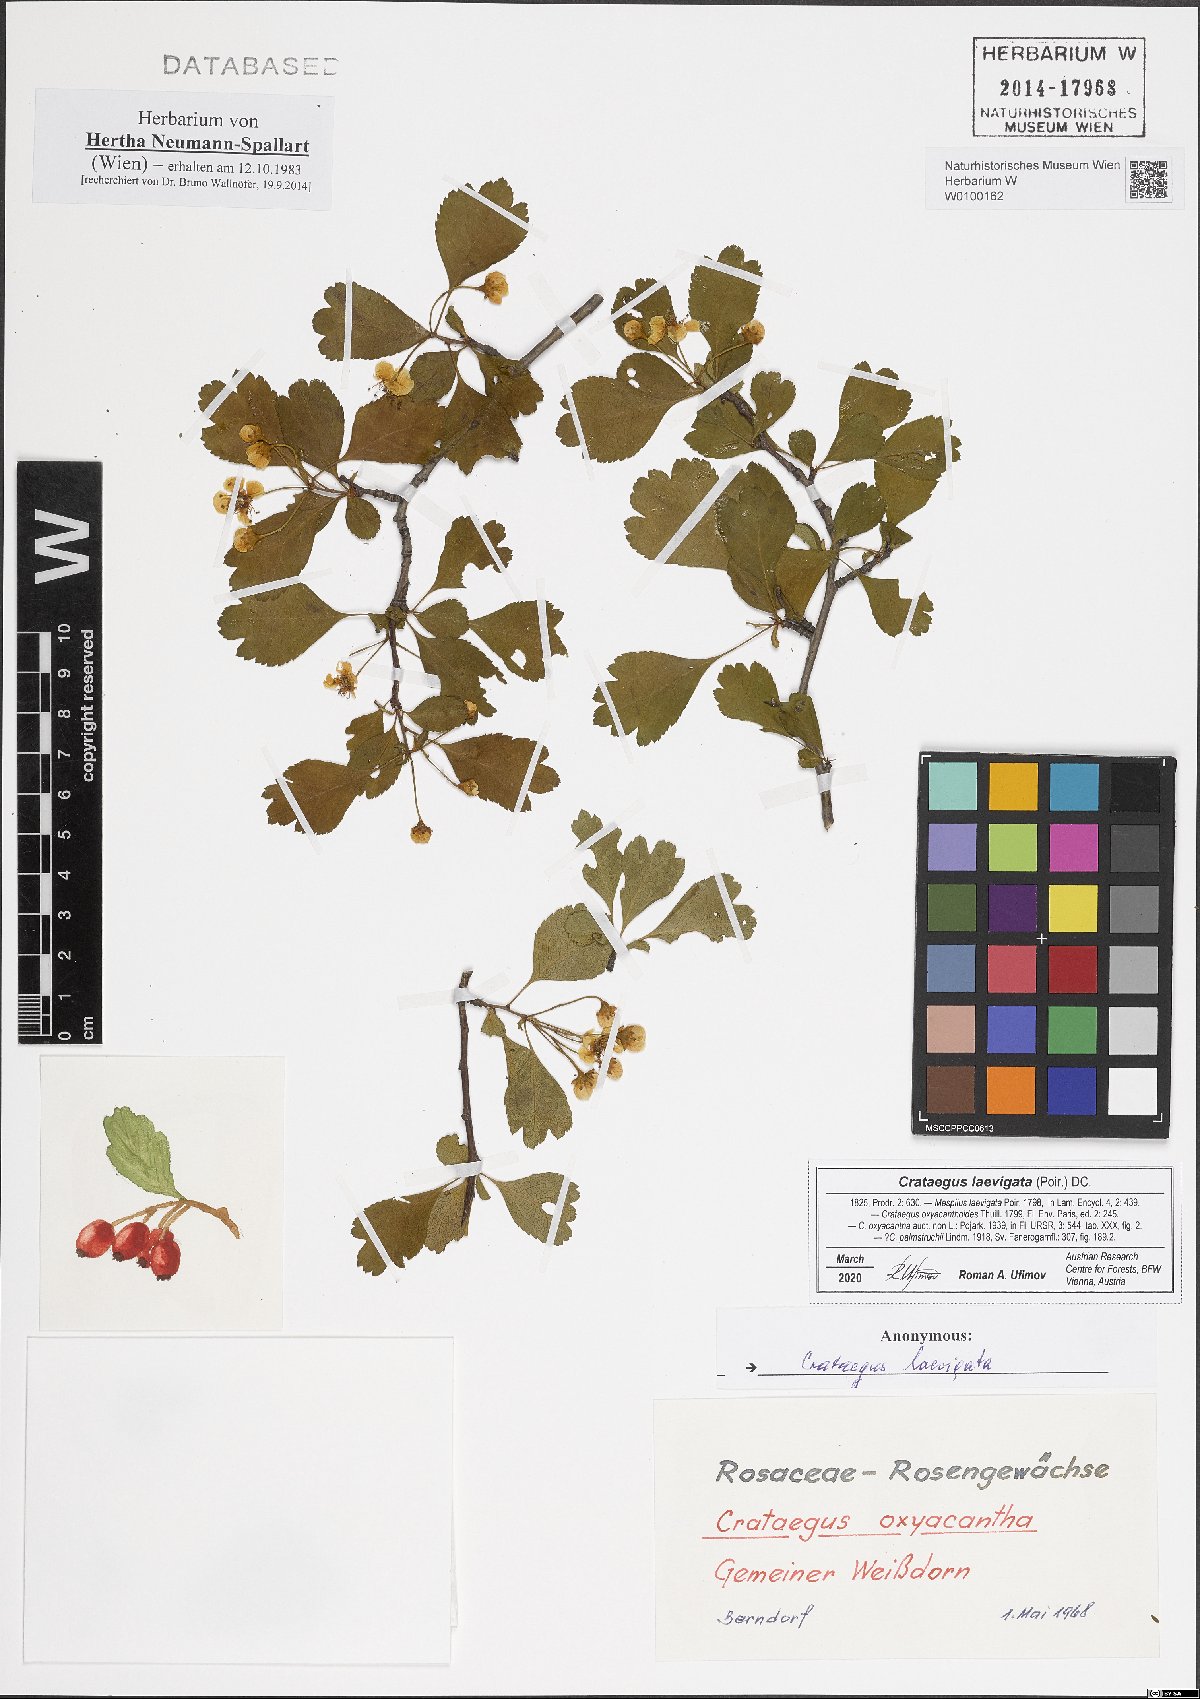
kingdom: Plantae
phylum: Tracheophyta
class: Magnoliopsida
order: Rosales
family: Rosaceae
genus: Crataegus
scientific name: Crataegus laevigata
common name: Midland hawthorn
